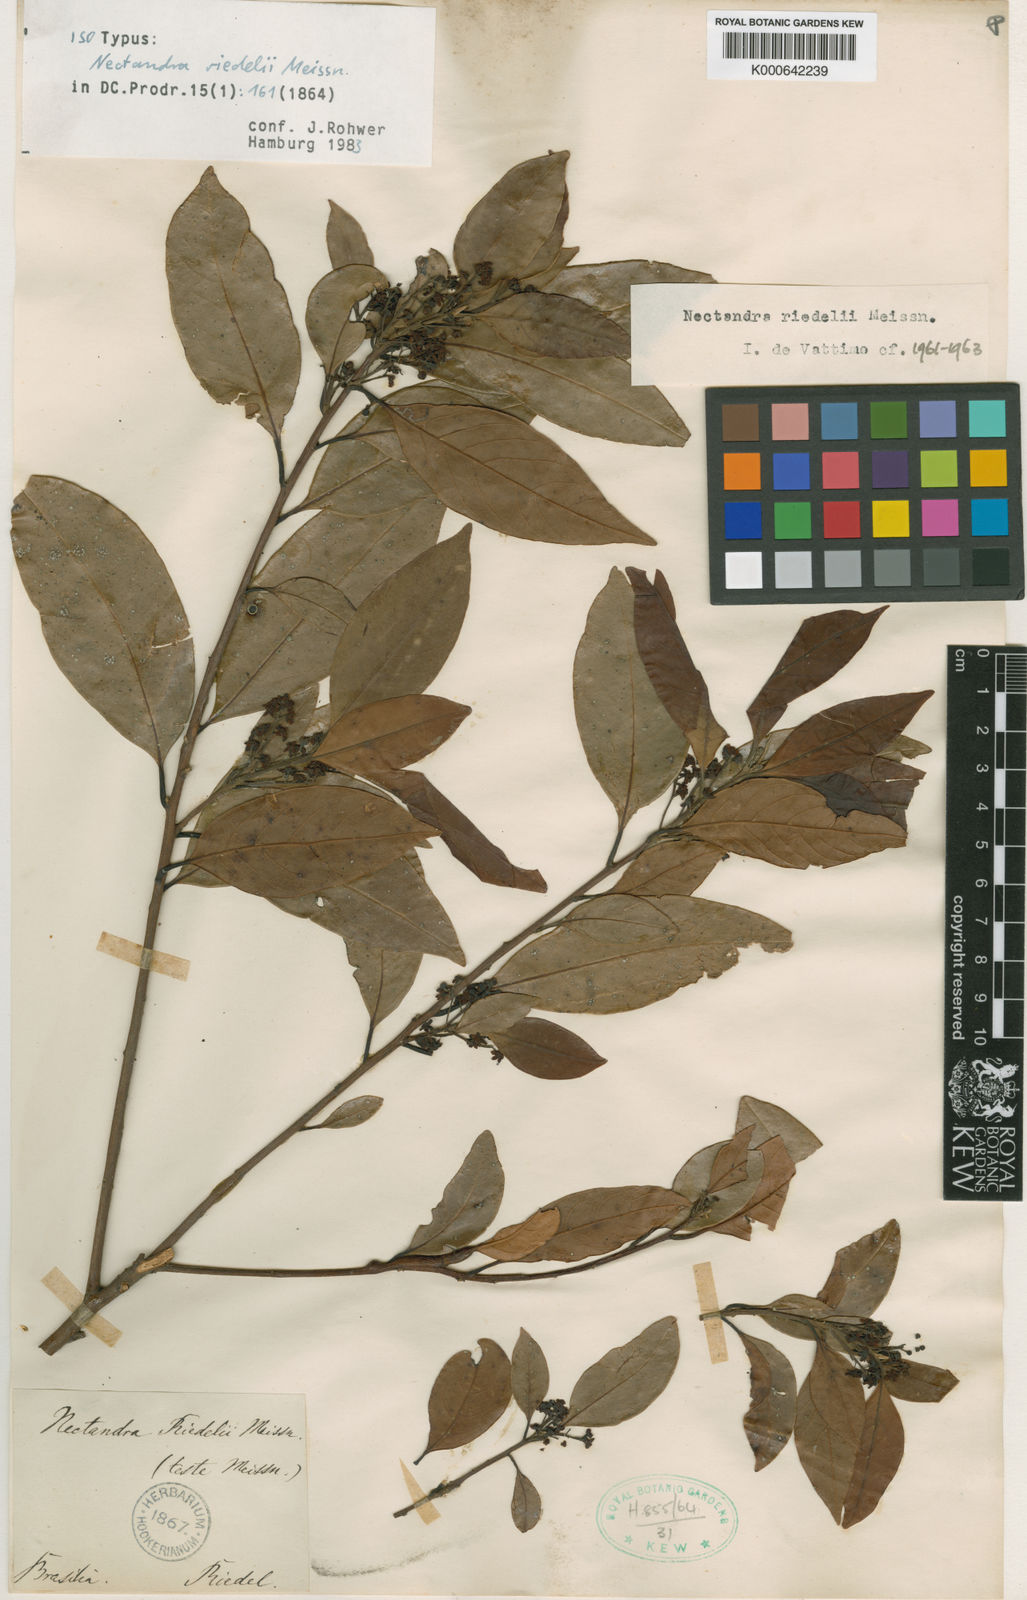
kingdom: Plantae
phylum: Tracheophyta
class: Magnoliopsida
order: Laurales
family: Lauraceae
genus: Nectandra
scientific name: Nectandra psammophila
